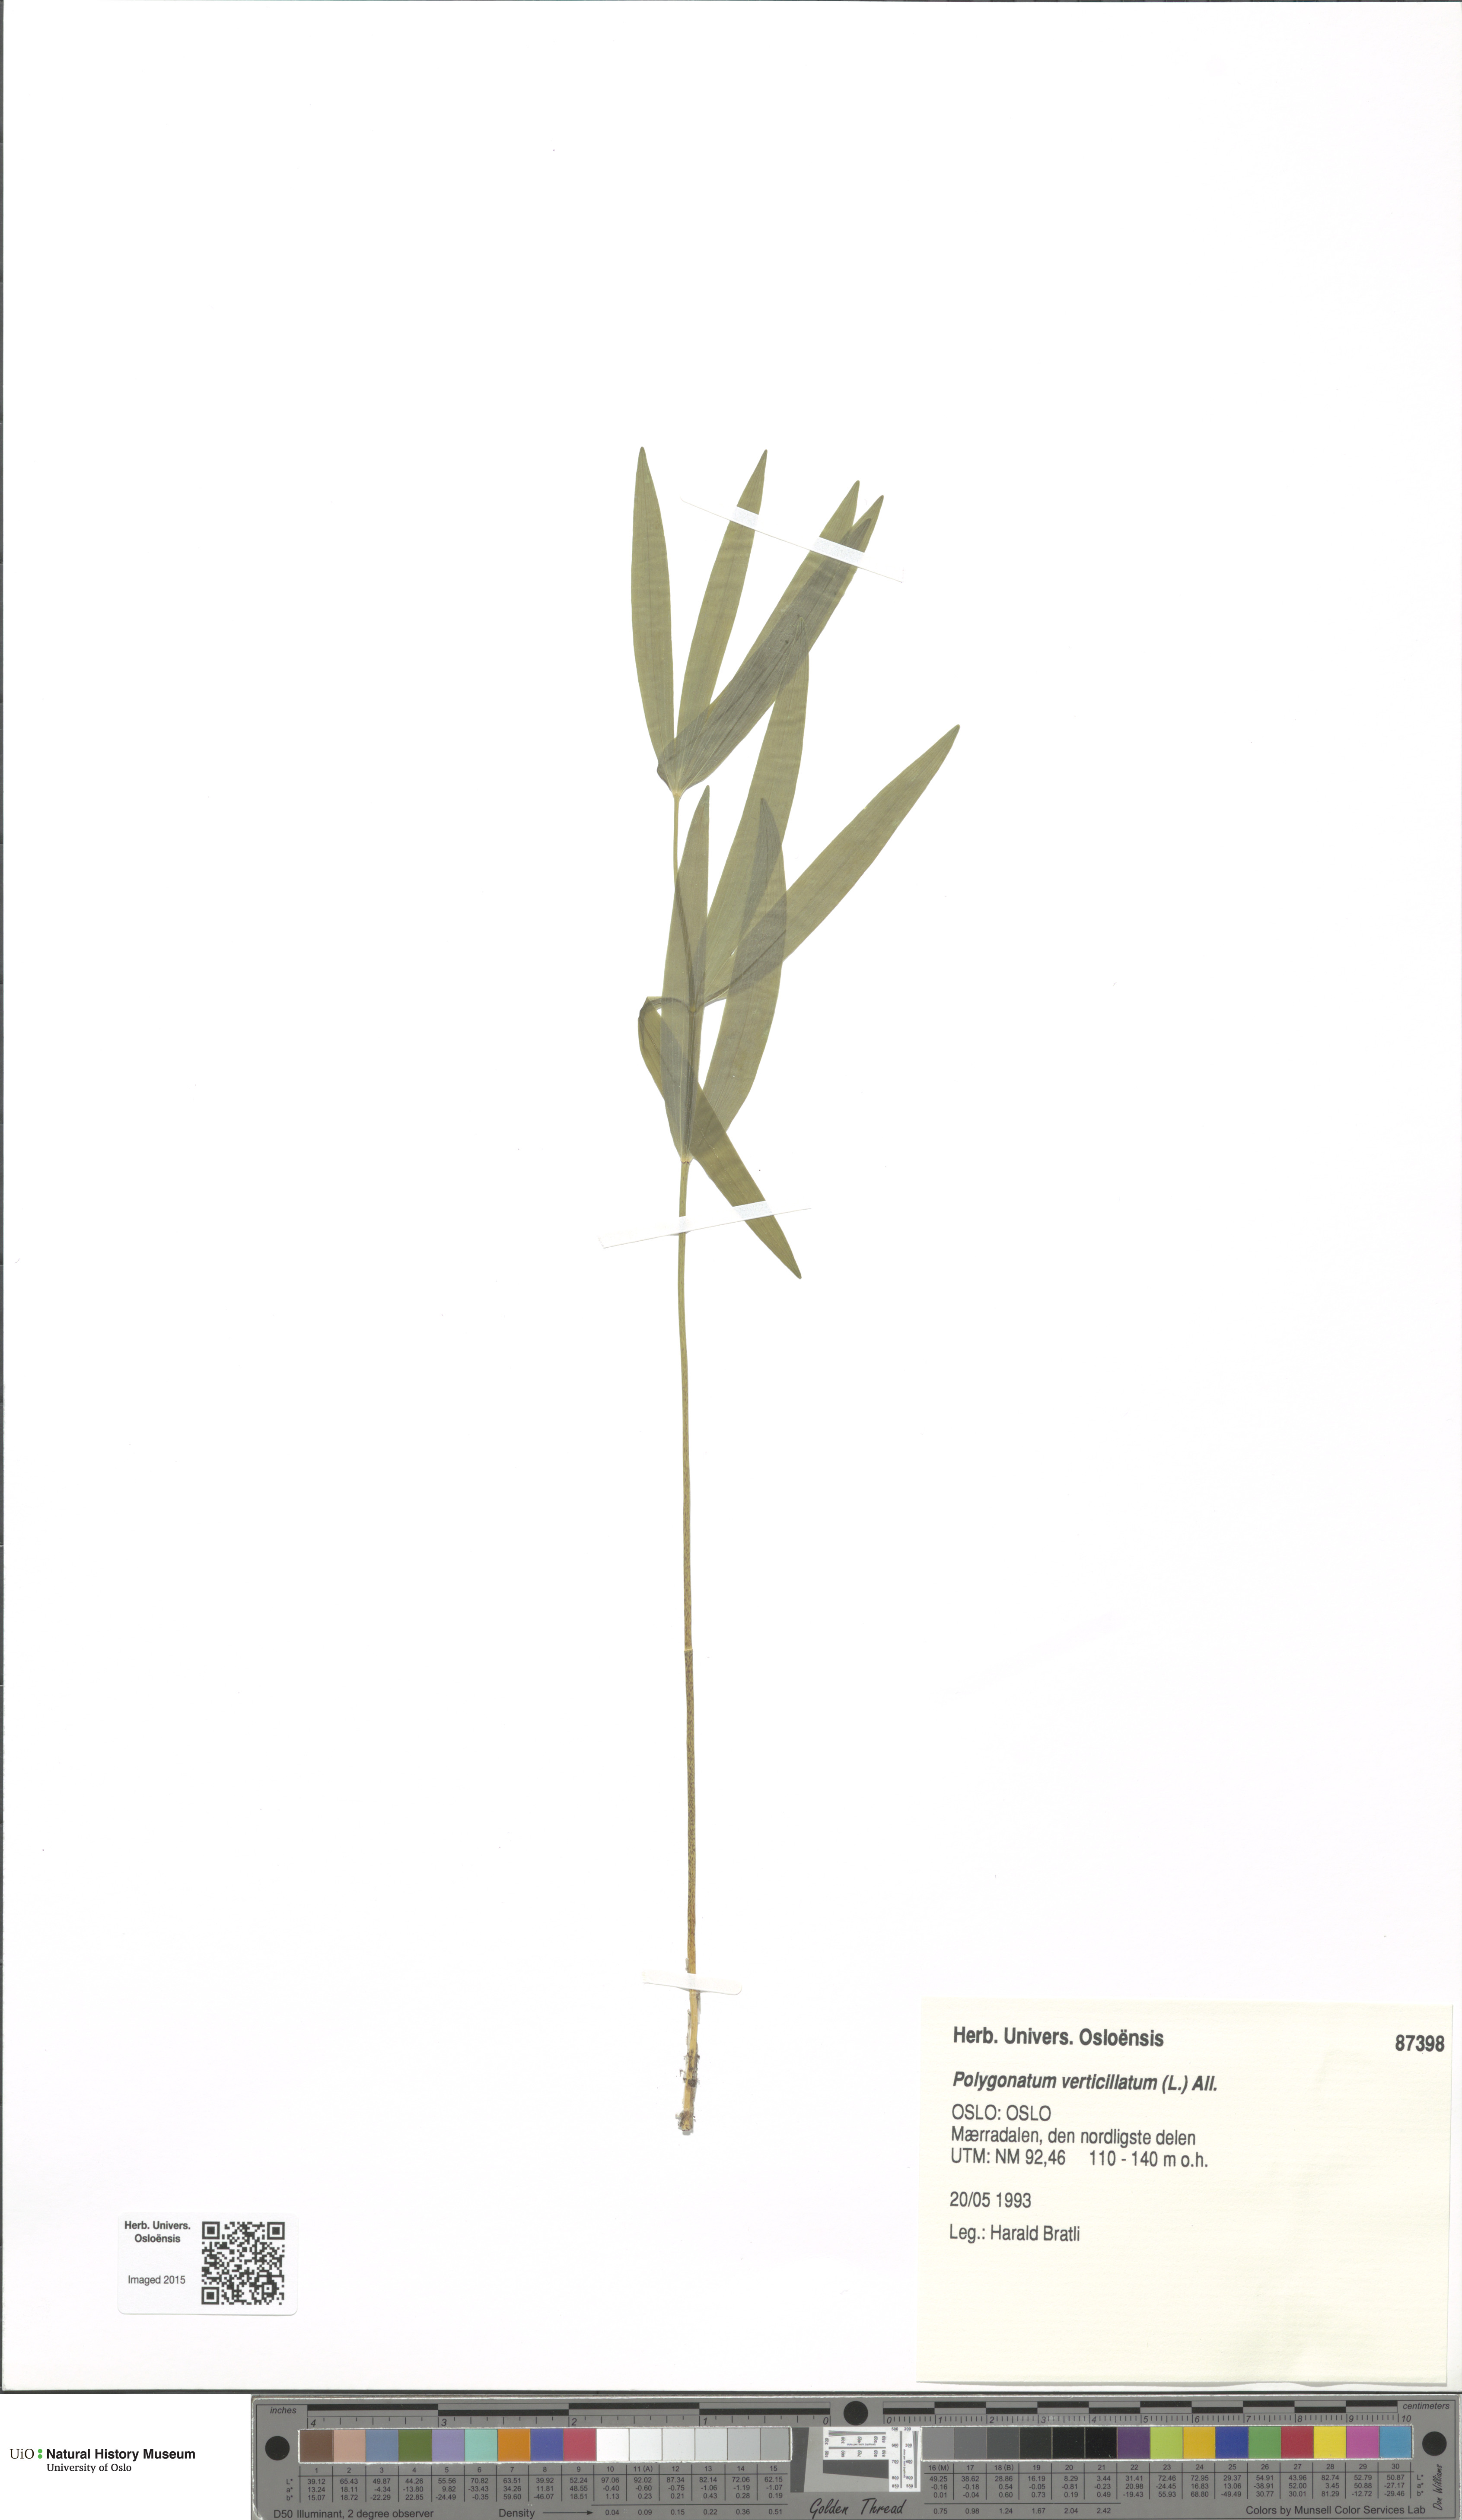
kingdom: Plantae
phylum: Tracheophyta
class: Liliopsida
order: Asparagales
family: Asparagaceae
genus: Polygonatum
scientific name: Polygonatum verticillatum
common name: Whorled solomon's-seal
